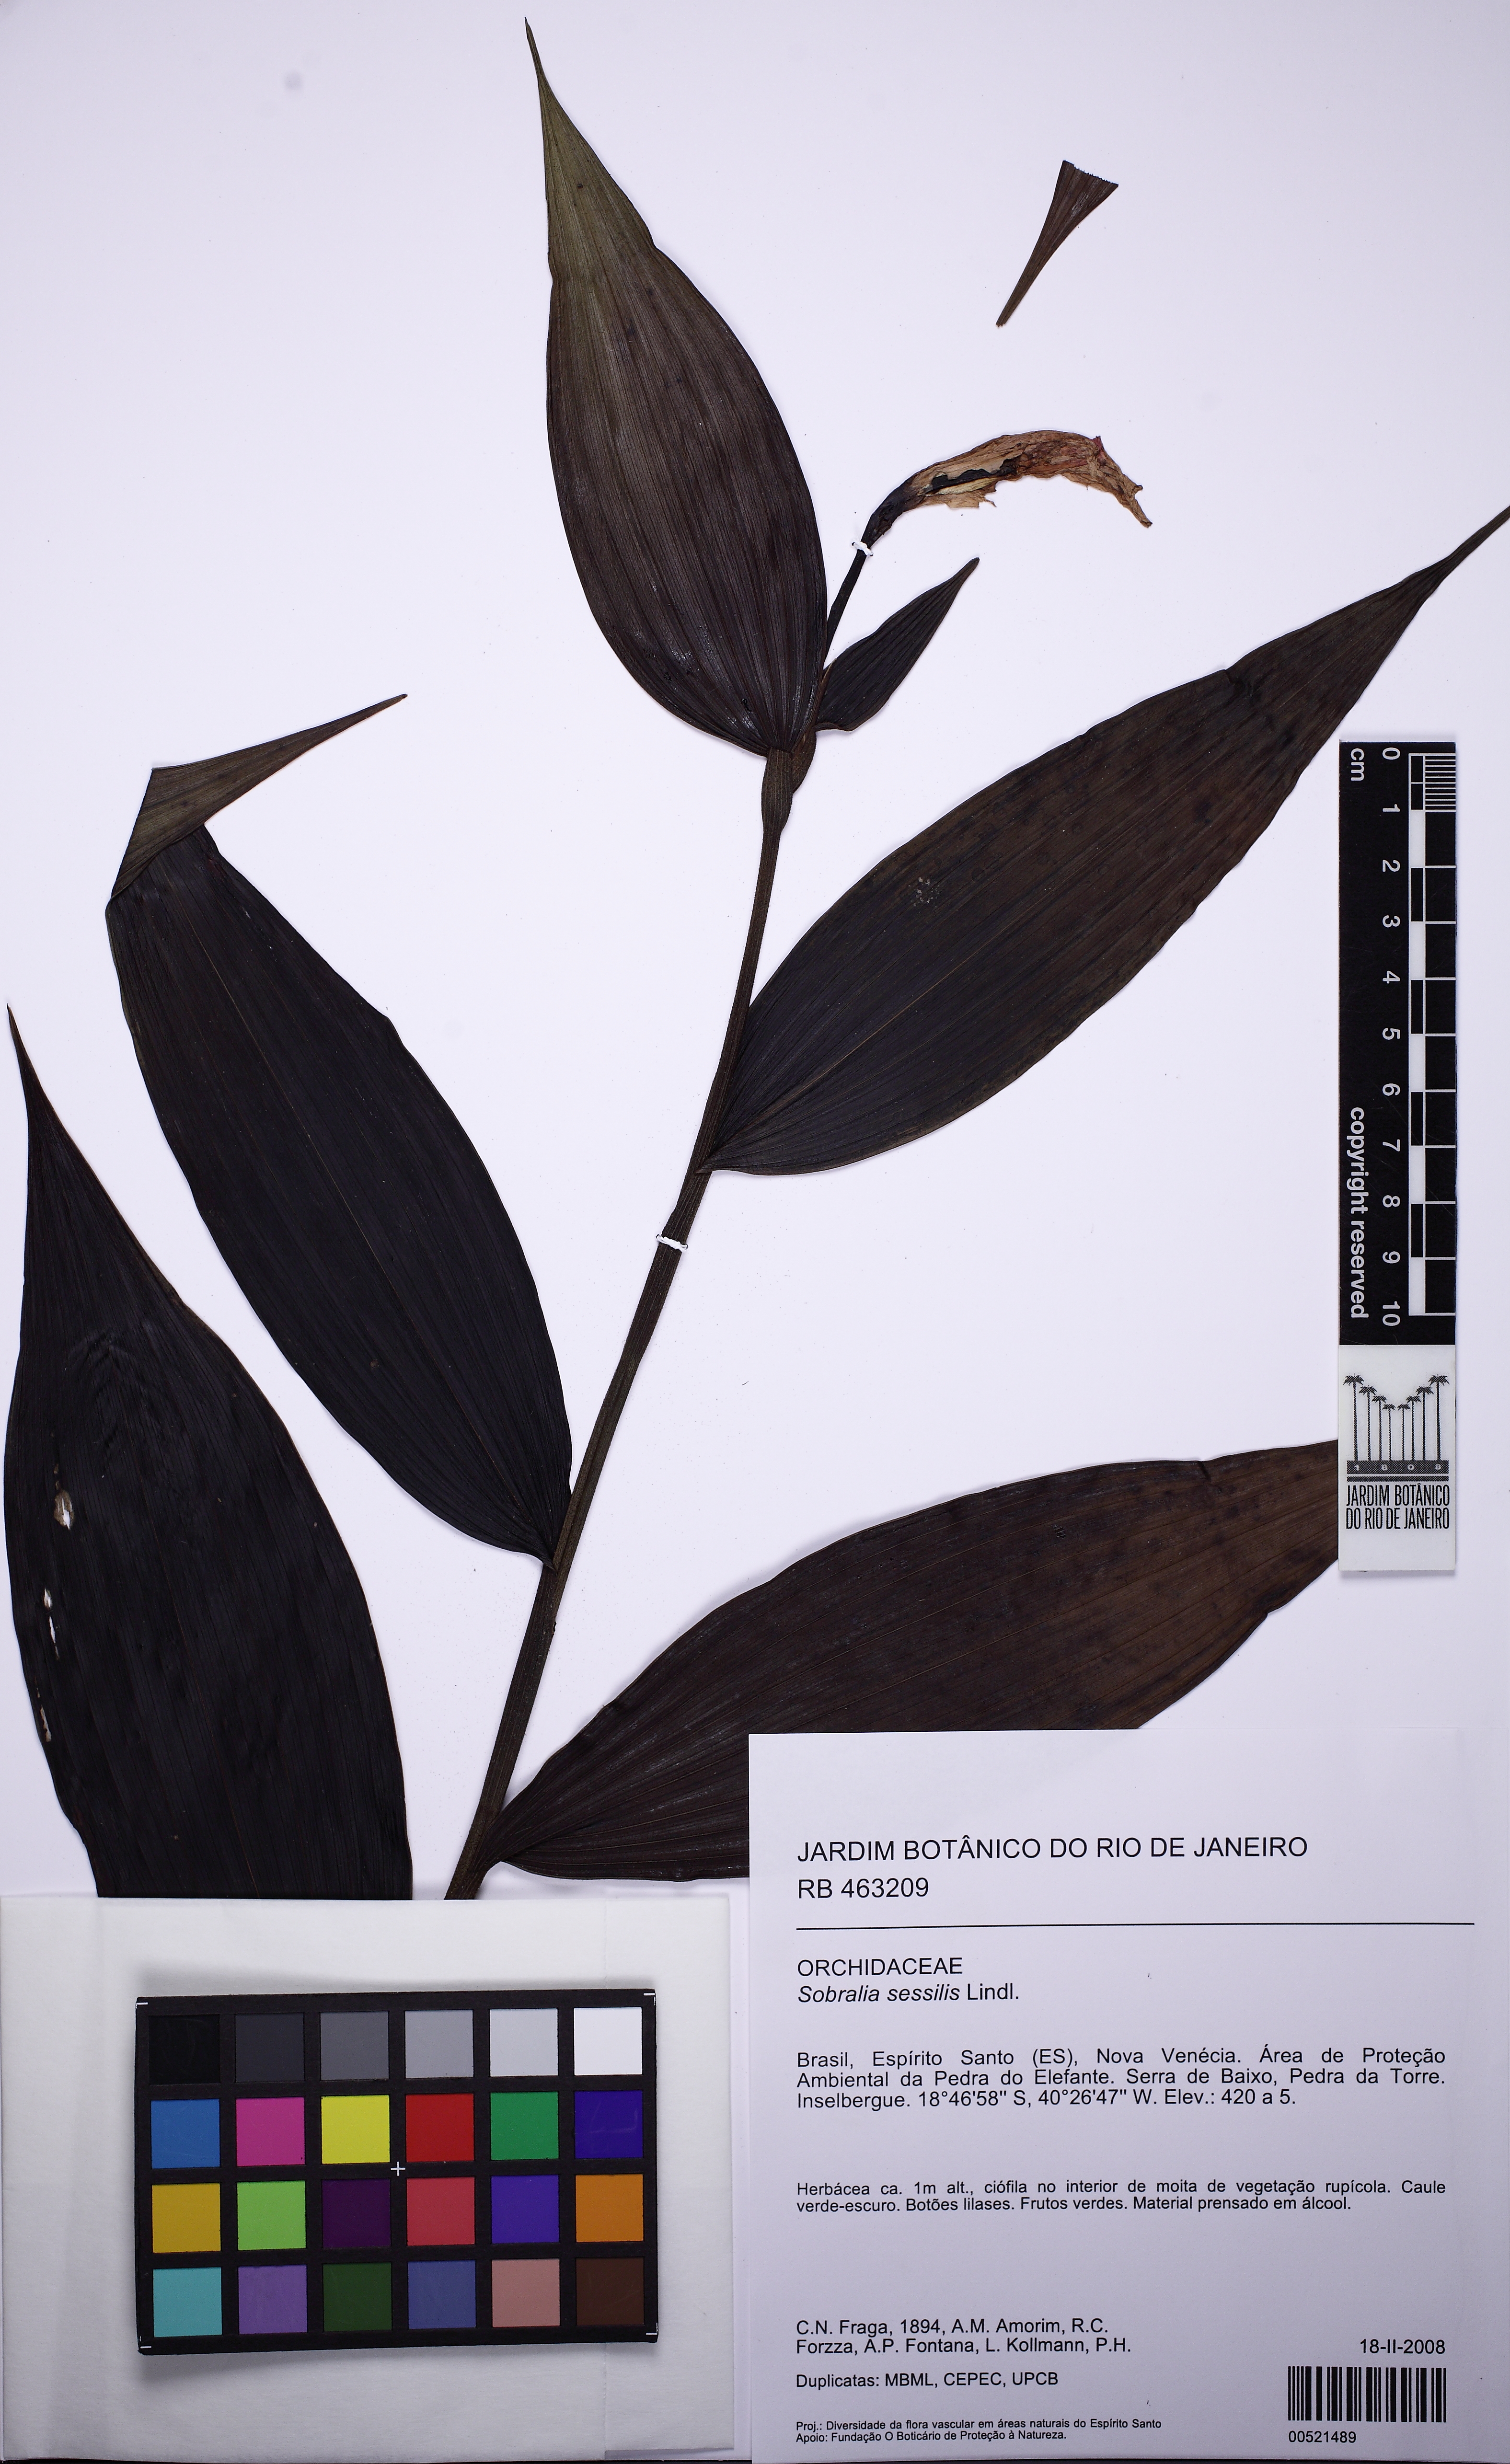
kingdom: Plantae
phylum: Tracheophyta
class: Liliopsida
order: Asparagales
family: Orchidaceae
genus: Sobralia
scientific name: Sobralia sessilis
